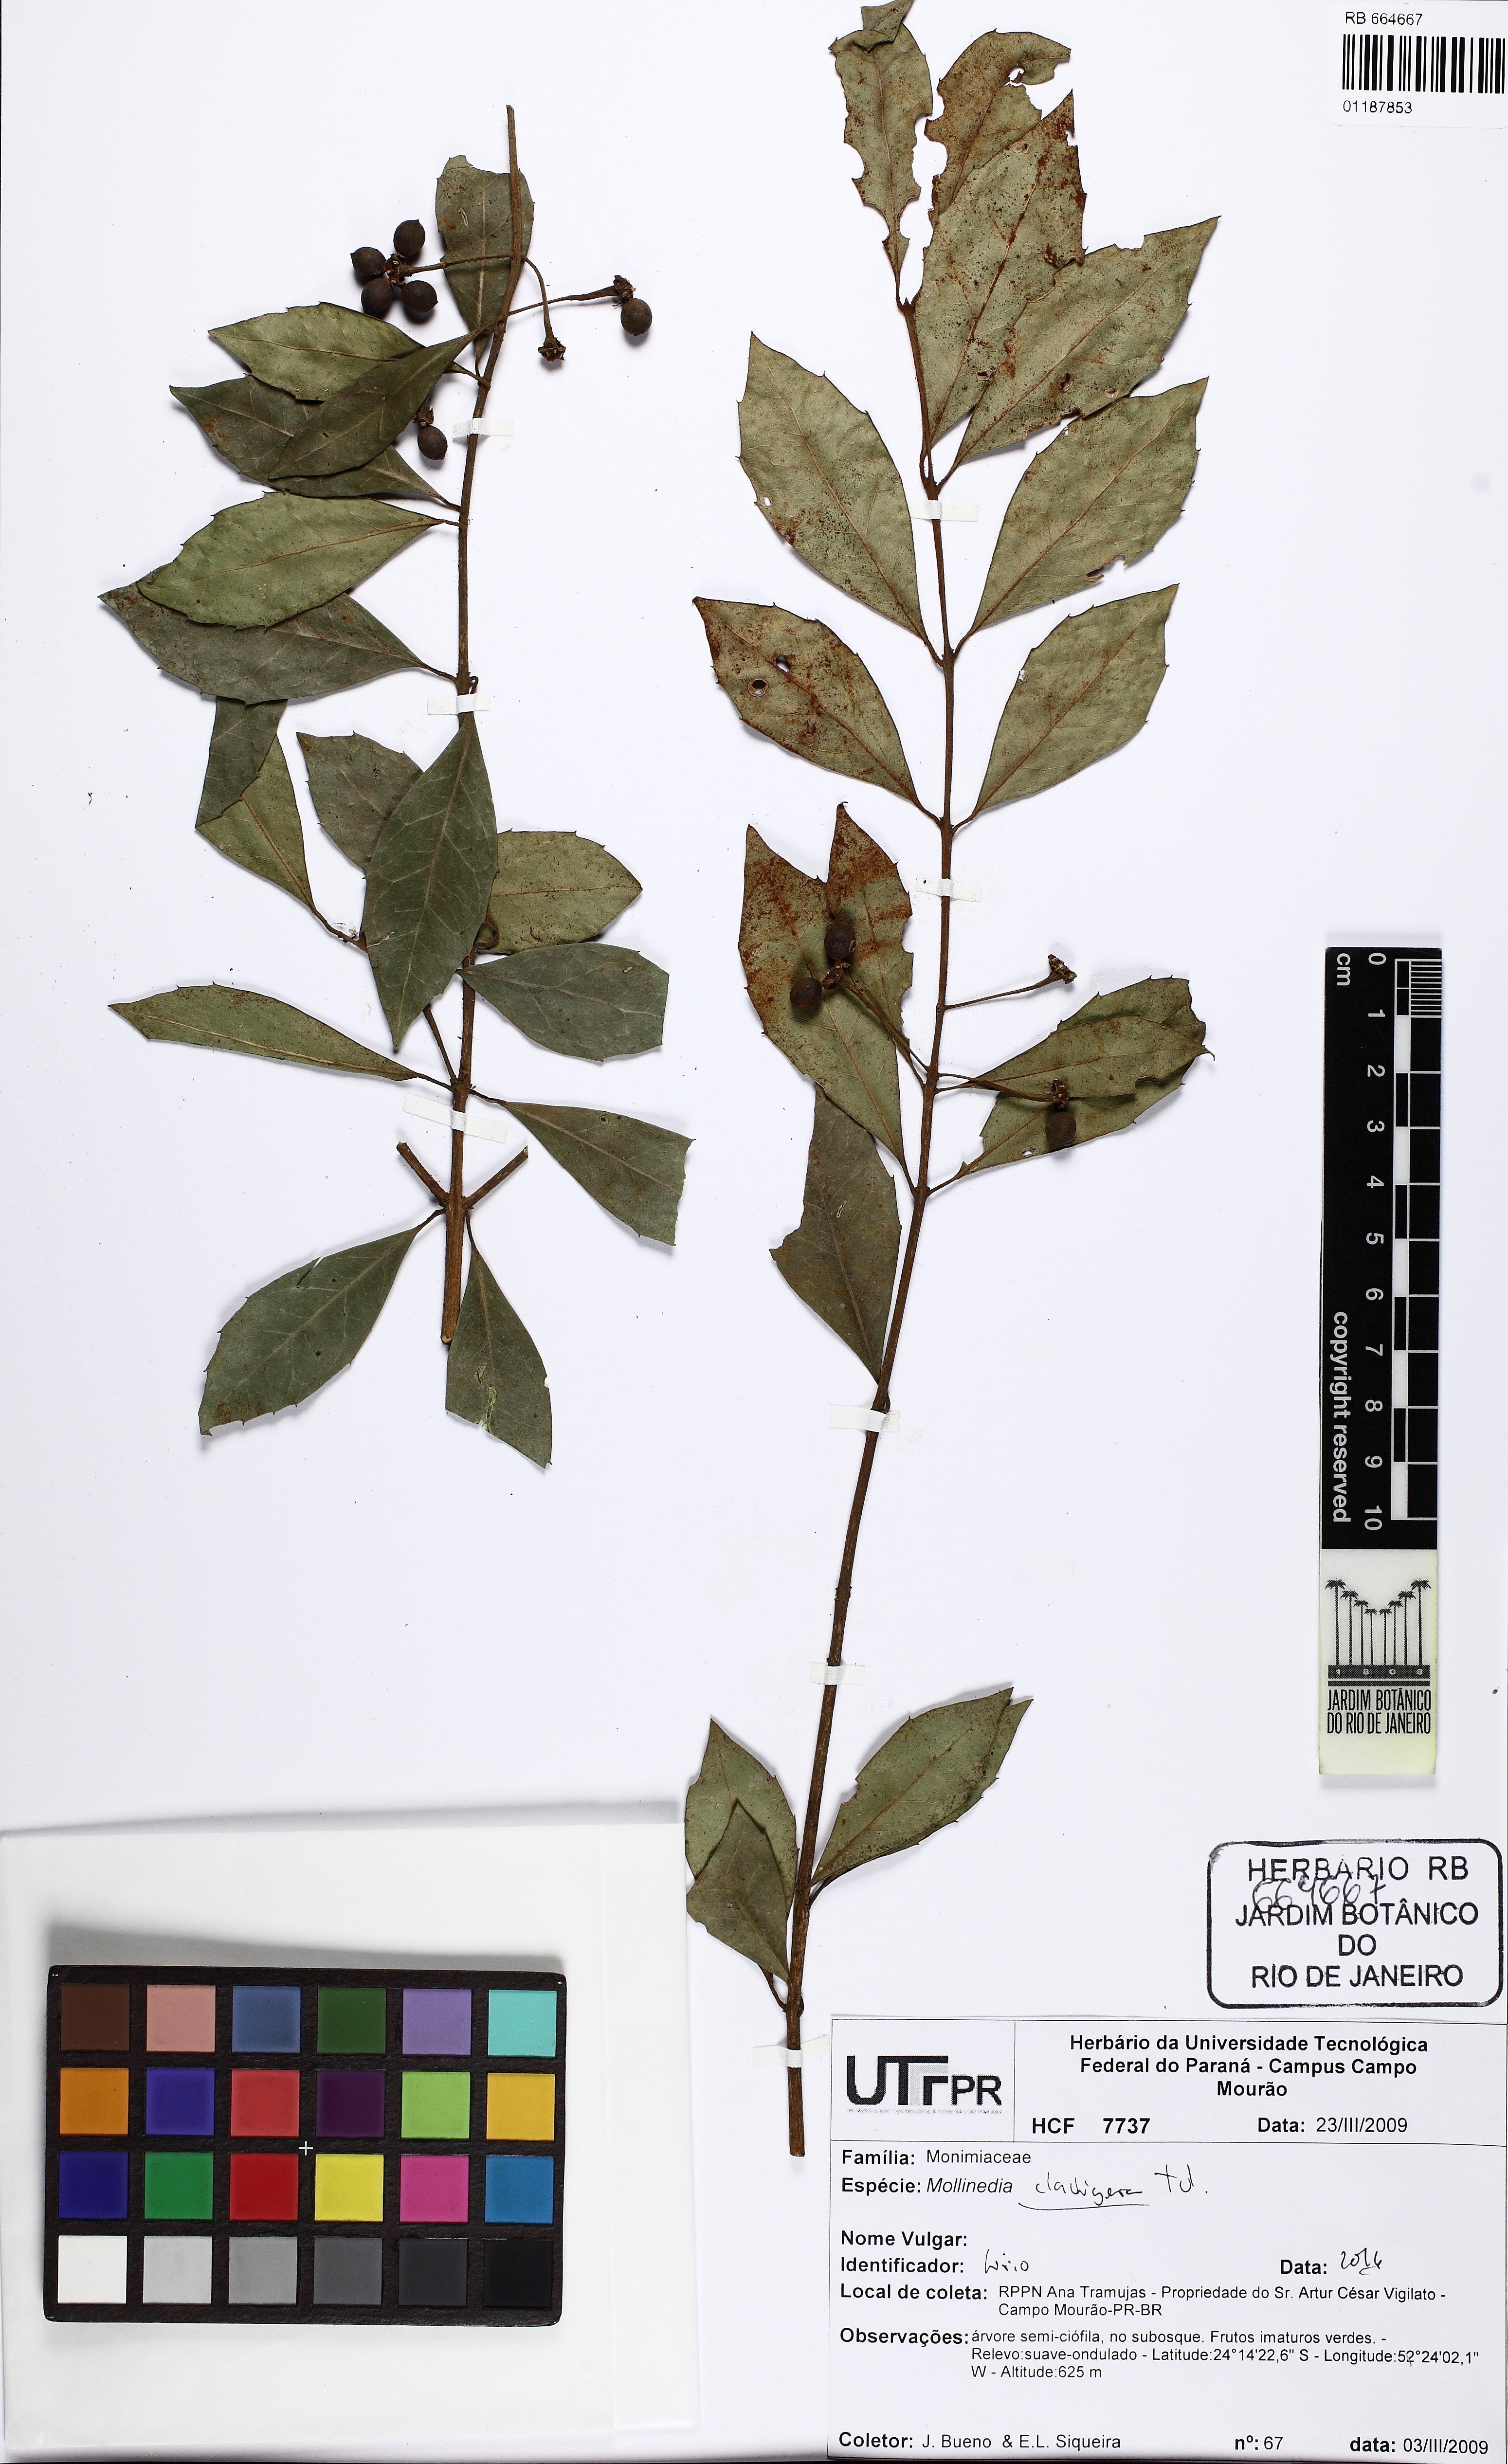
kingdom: Plantae
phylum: Tracheophyta
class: Magnoliopsida
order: Laurales
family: Monimiaceae
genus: Mollinedia
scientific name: Mollinedia clavigera
